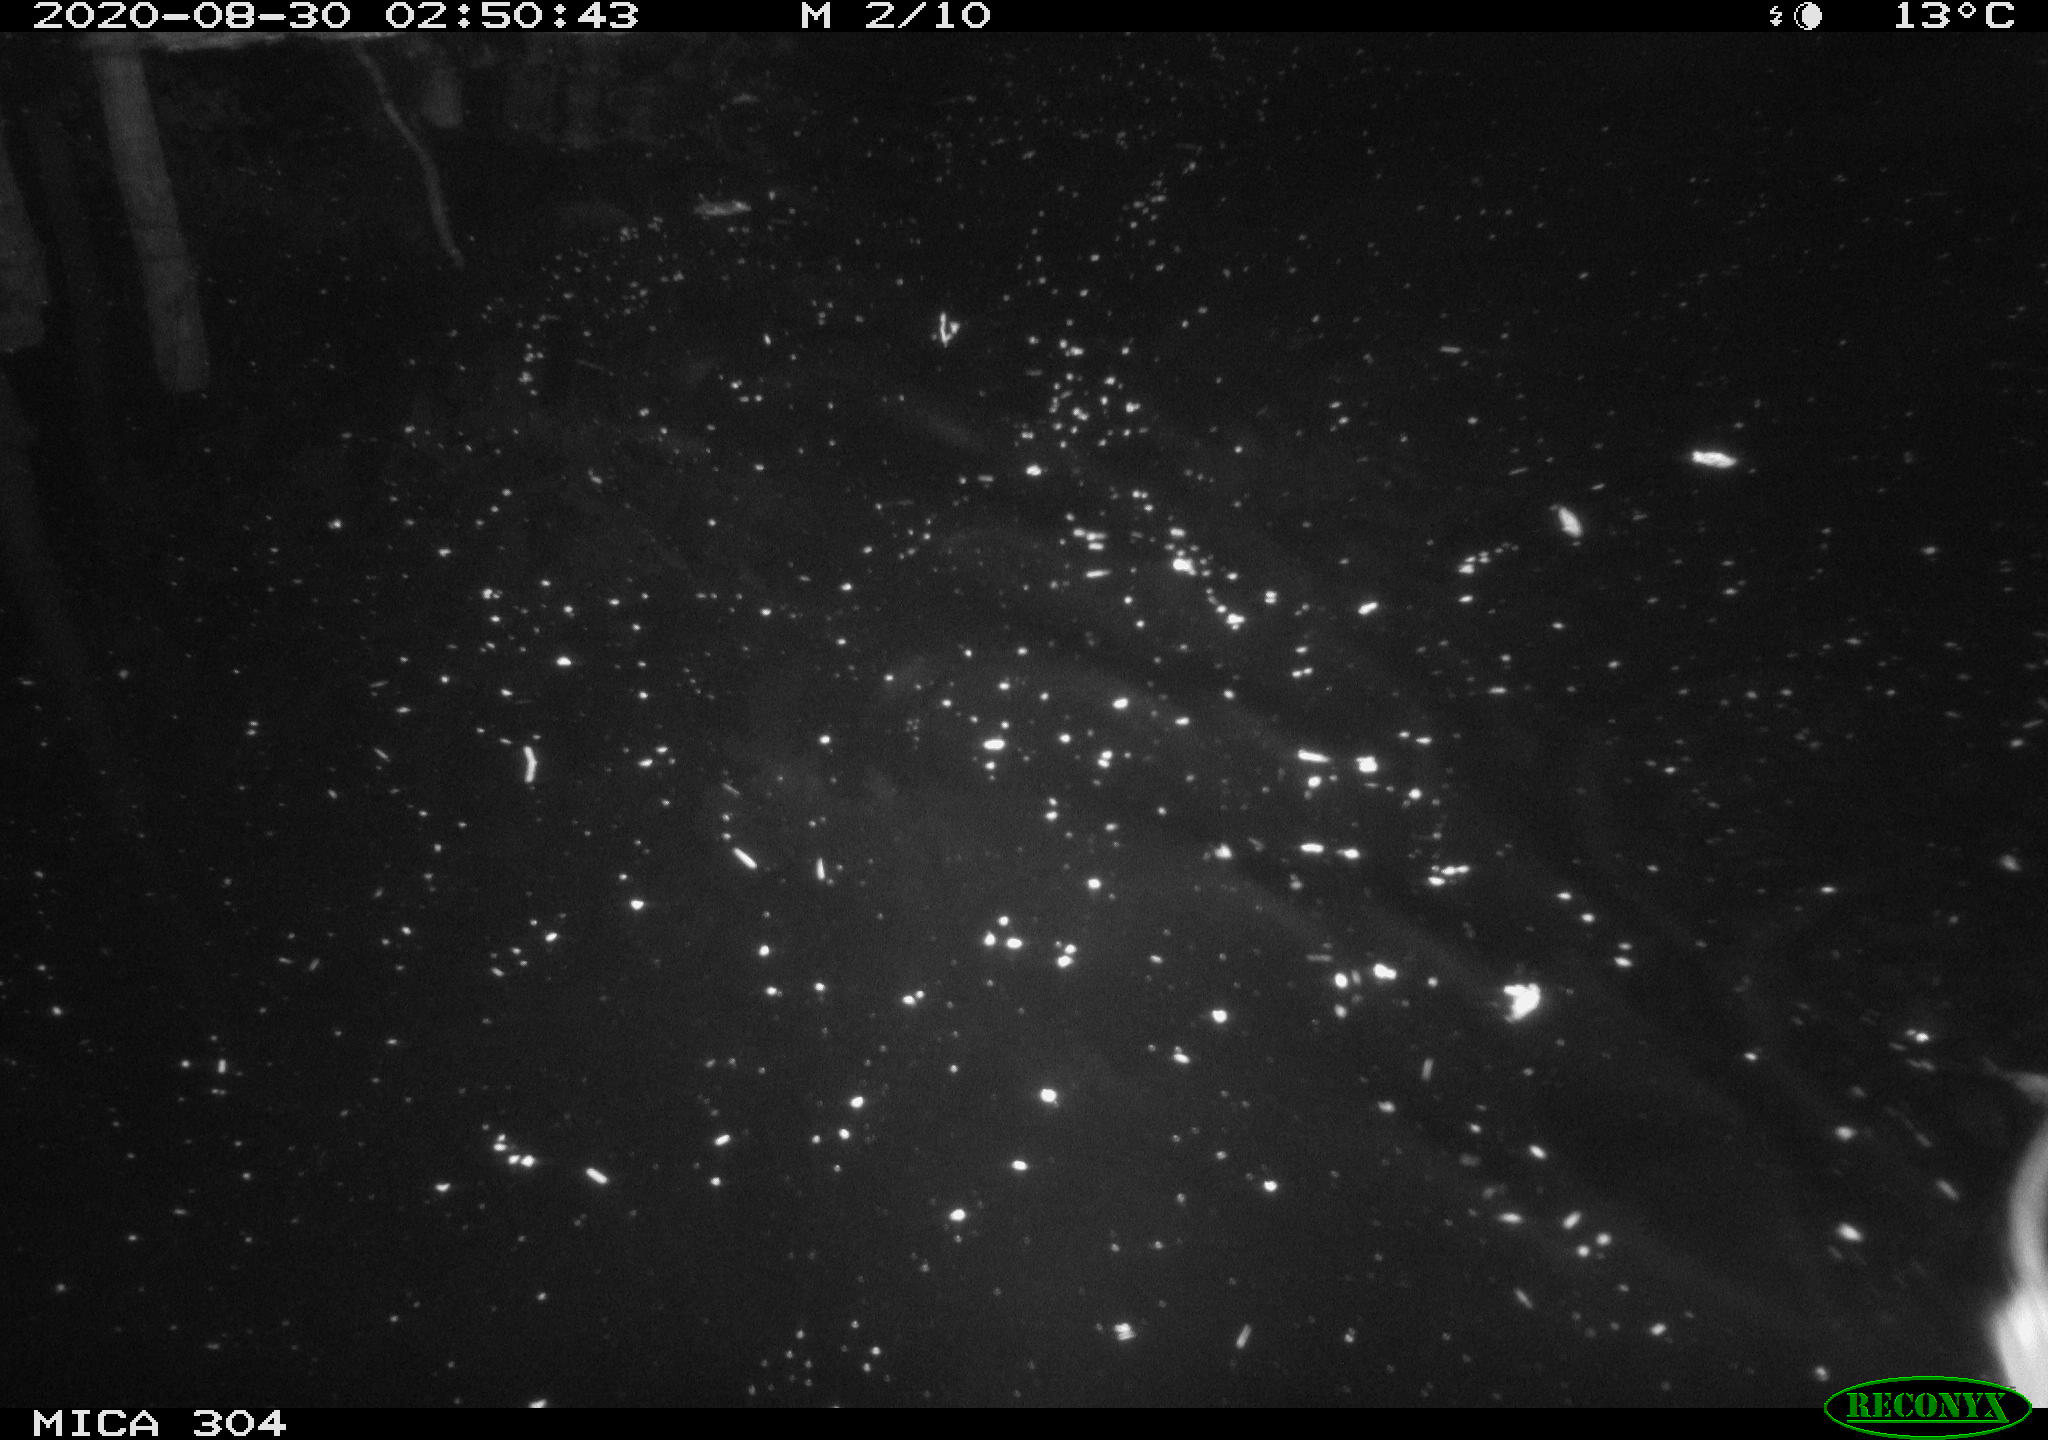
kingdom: Animalia
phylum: Chordata
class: Mammalia
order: Rodentia
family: Cricetidae
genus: Ondatra
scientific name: Ondatra zibethicus
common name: Muskrat
